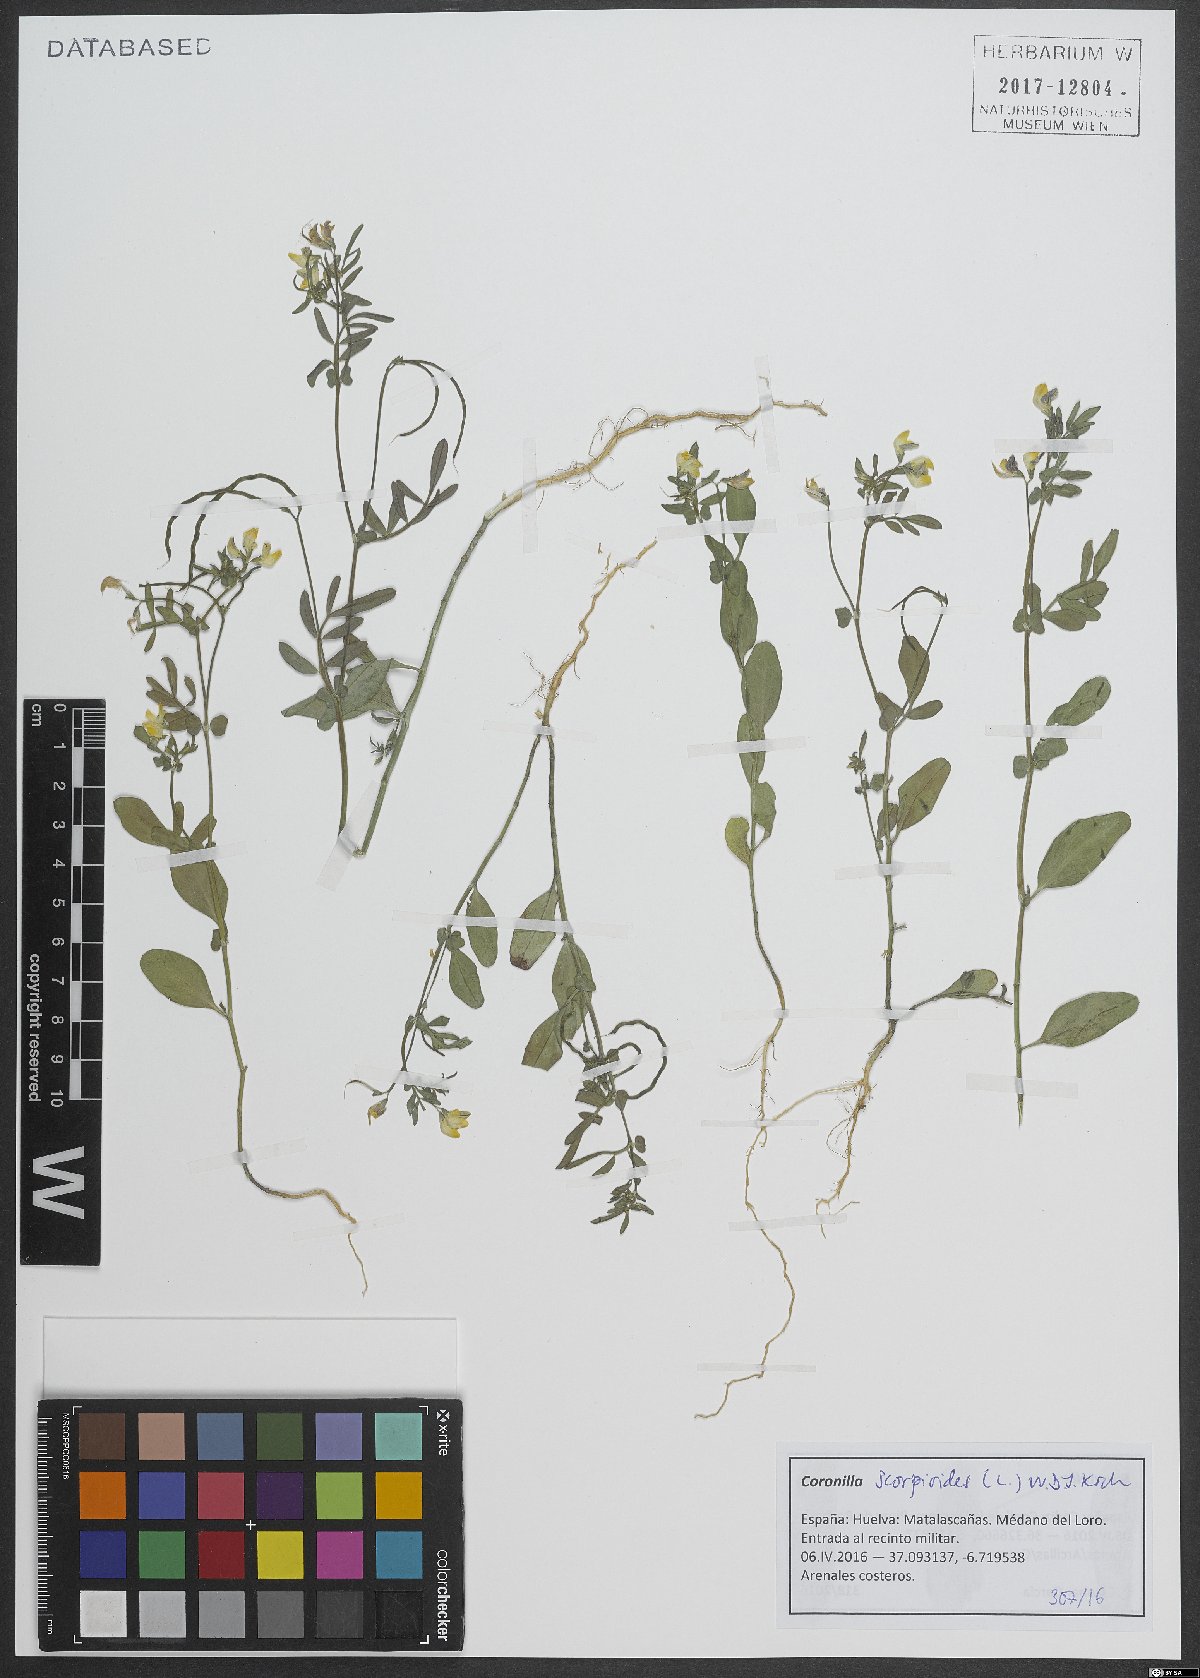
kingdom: Plantae
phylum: Tracheophyta
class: Magnoliopsida
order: Fabales
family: Fabaceae
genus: Coronilla
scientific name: Coronilla scorpioides
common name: Annual scorpion-vetch
